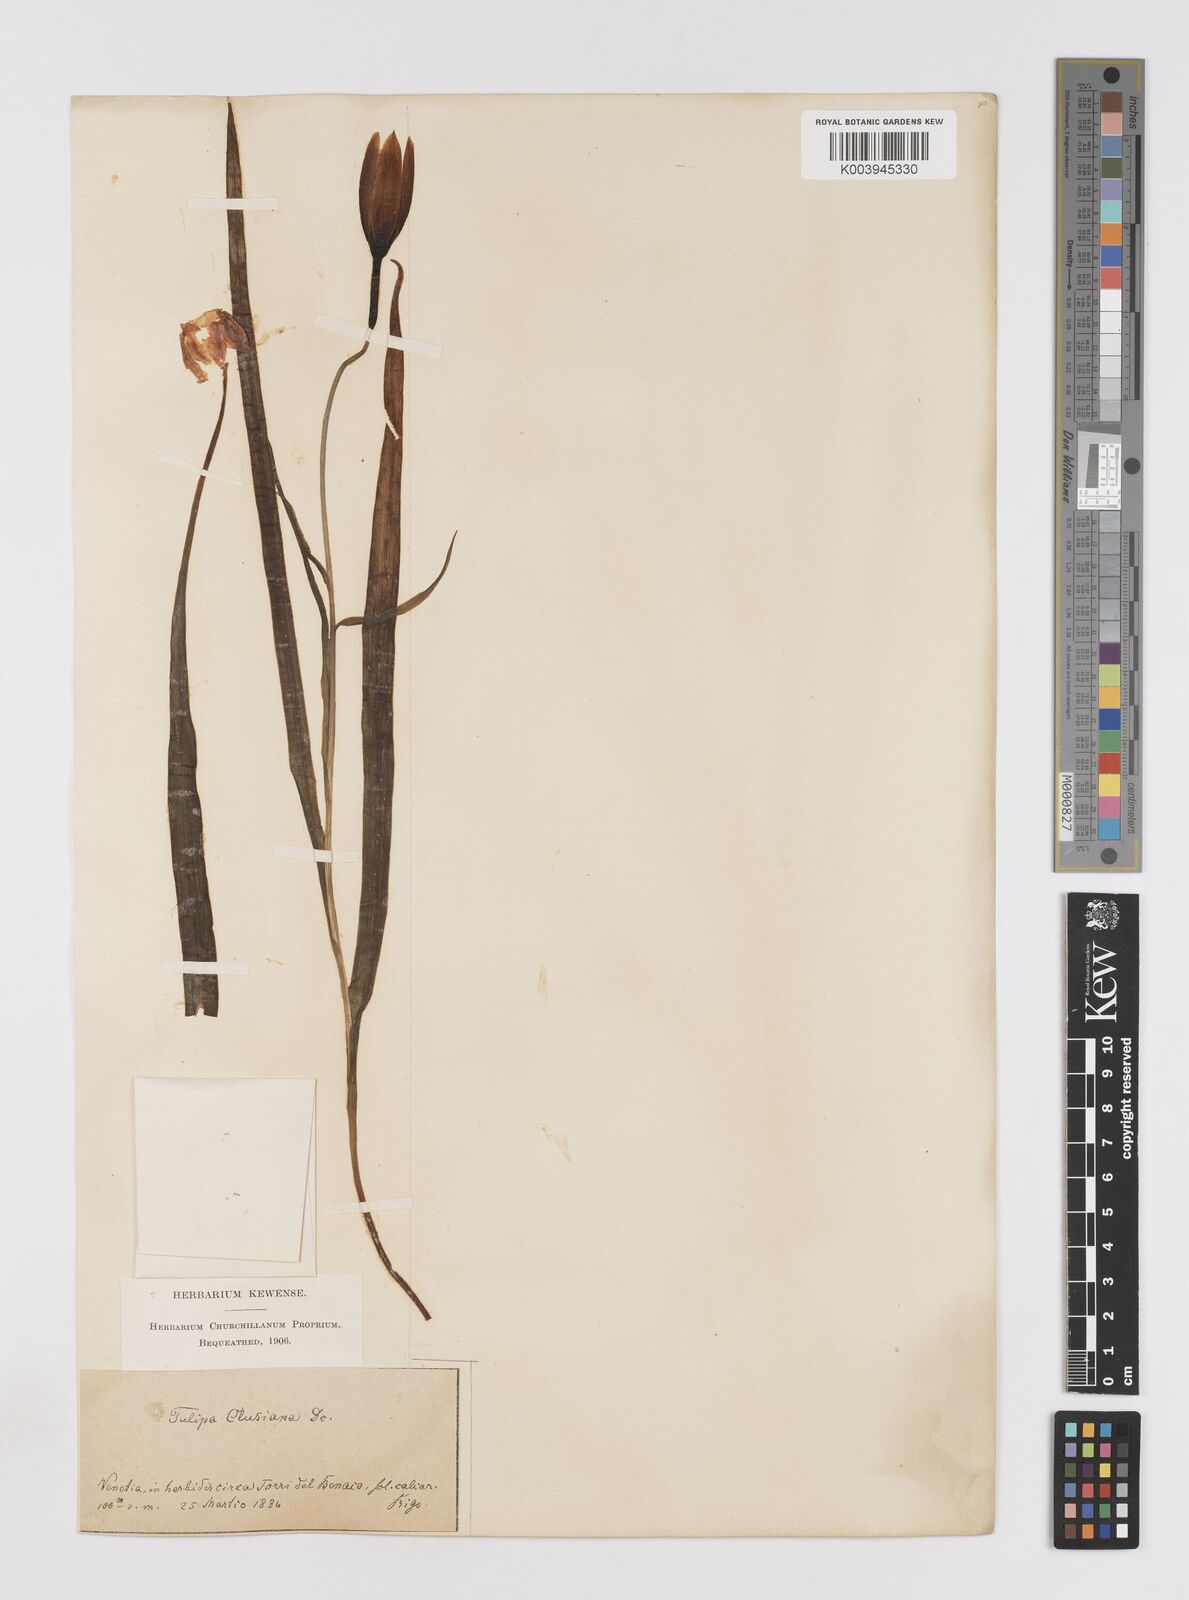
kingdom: Plantae
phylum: Tracheophyta
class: Liliopsida
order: Liliales
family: Liliaceae
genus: Tulipa
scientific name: Tulipa clusiana
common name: Lady tulip
